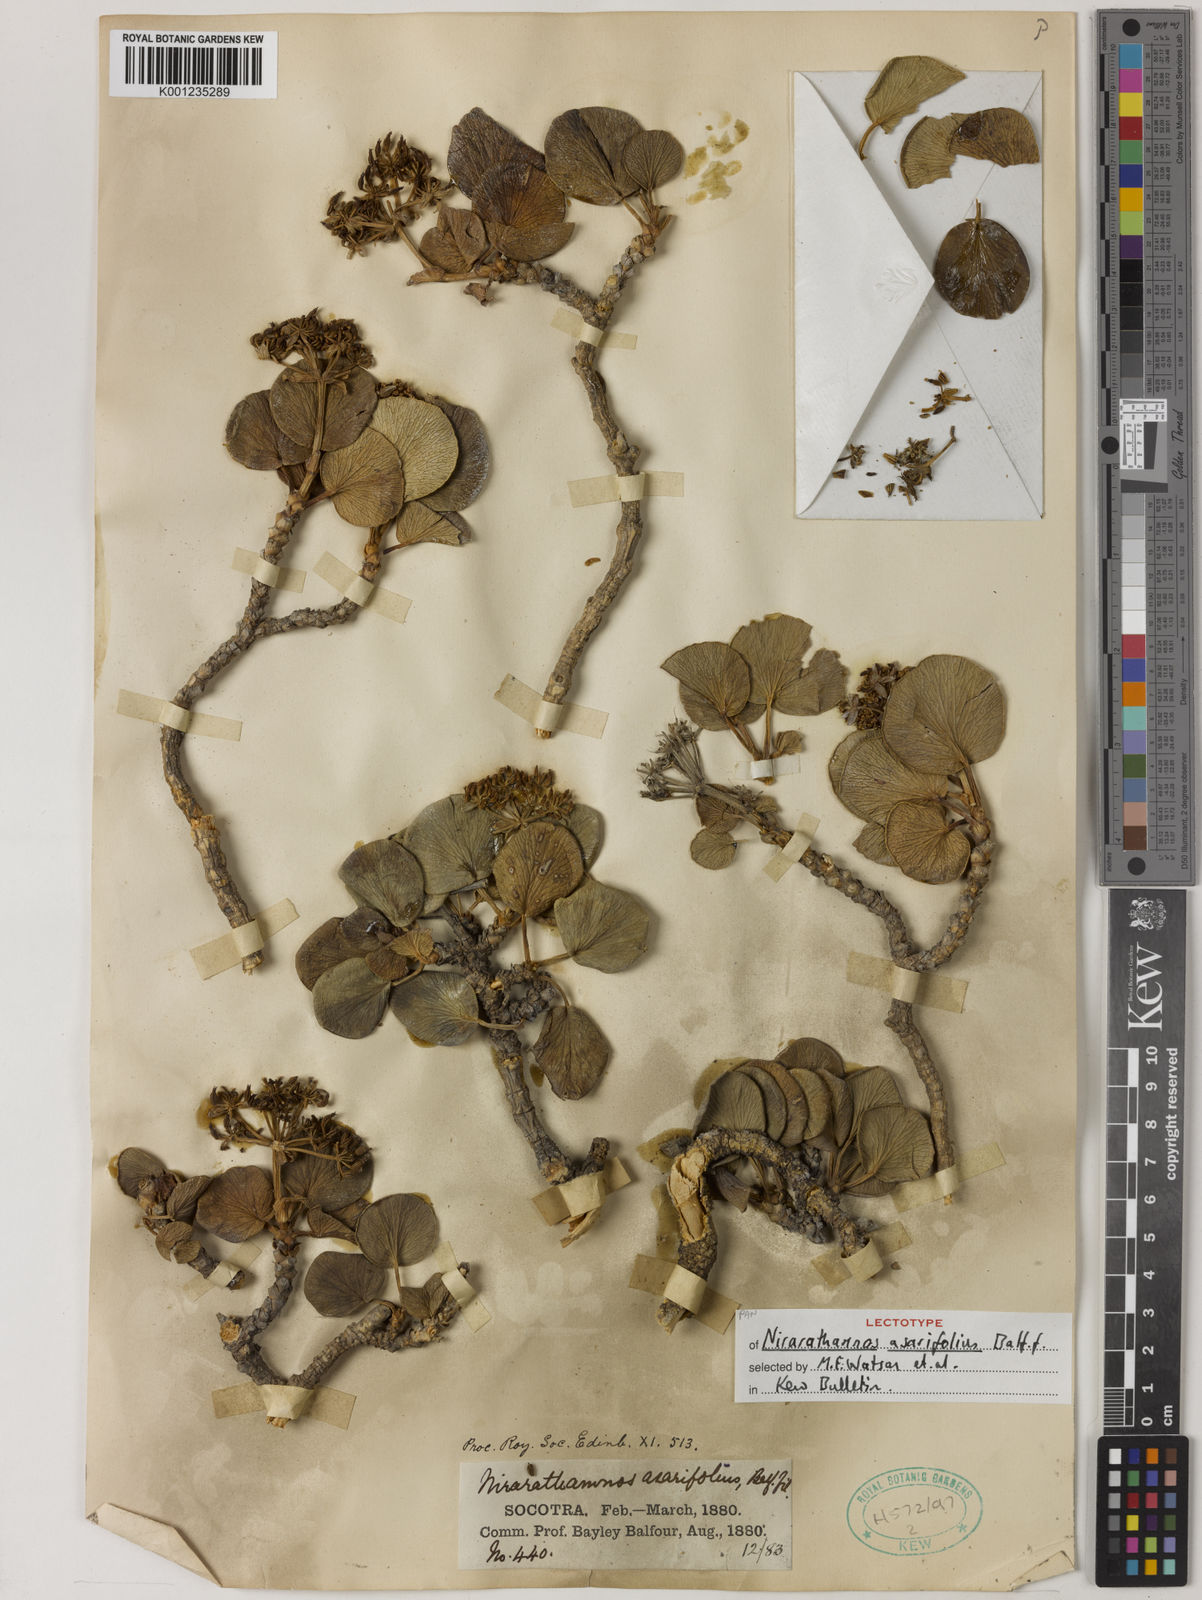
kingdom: Plantae
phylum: Tracheophyta
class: Magnoliopsida
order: Apiales
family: Apiaceae
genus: Nirarathamnos
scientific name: Nirarathamnos asarifolius
